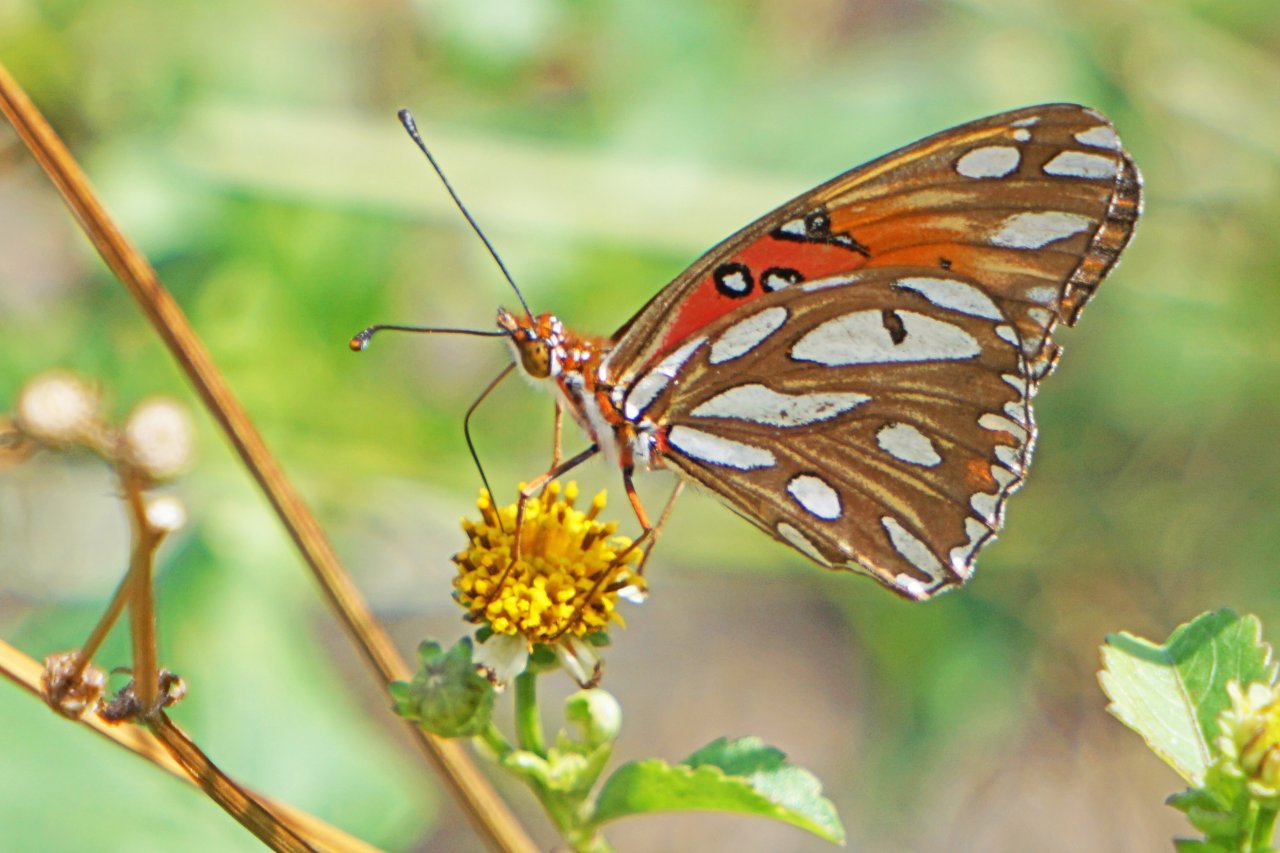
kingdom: Animalia
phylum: Arthropoda
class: Insecta
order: Lepidoptera
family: Nymphalidae
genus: Dione
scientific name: Dione vanillae
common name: Gulf Fritillary
